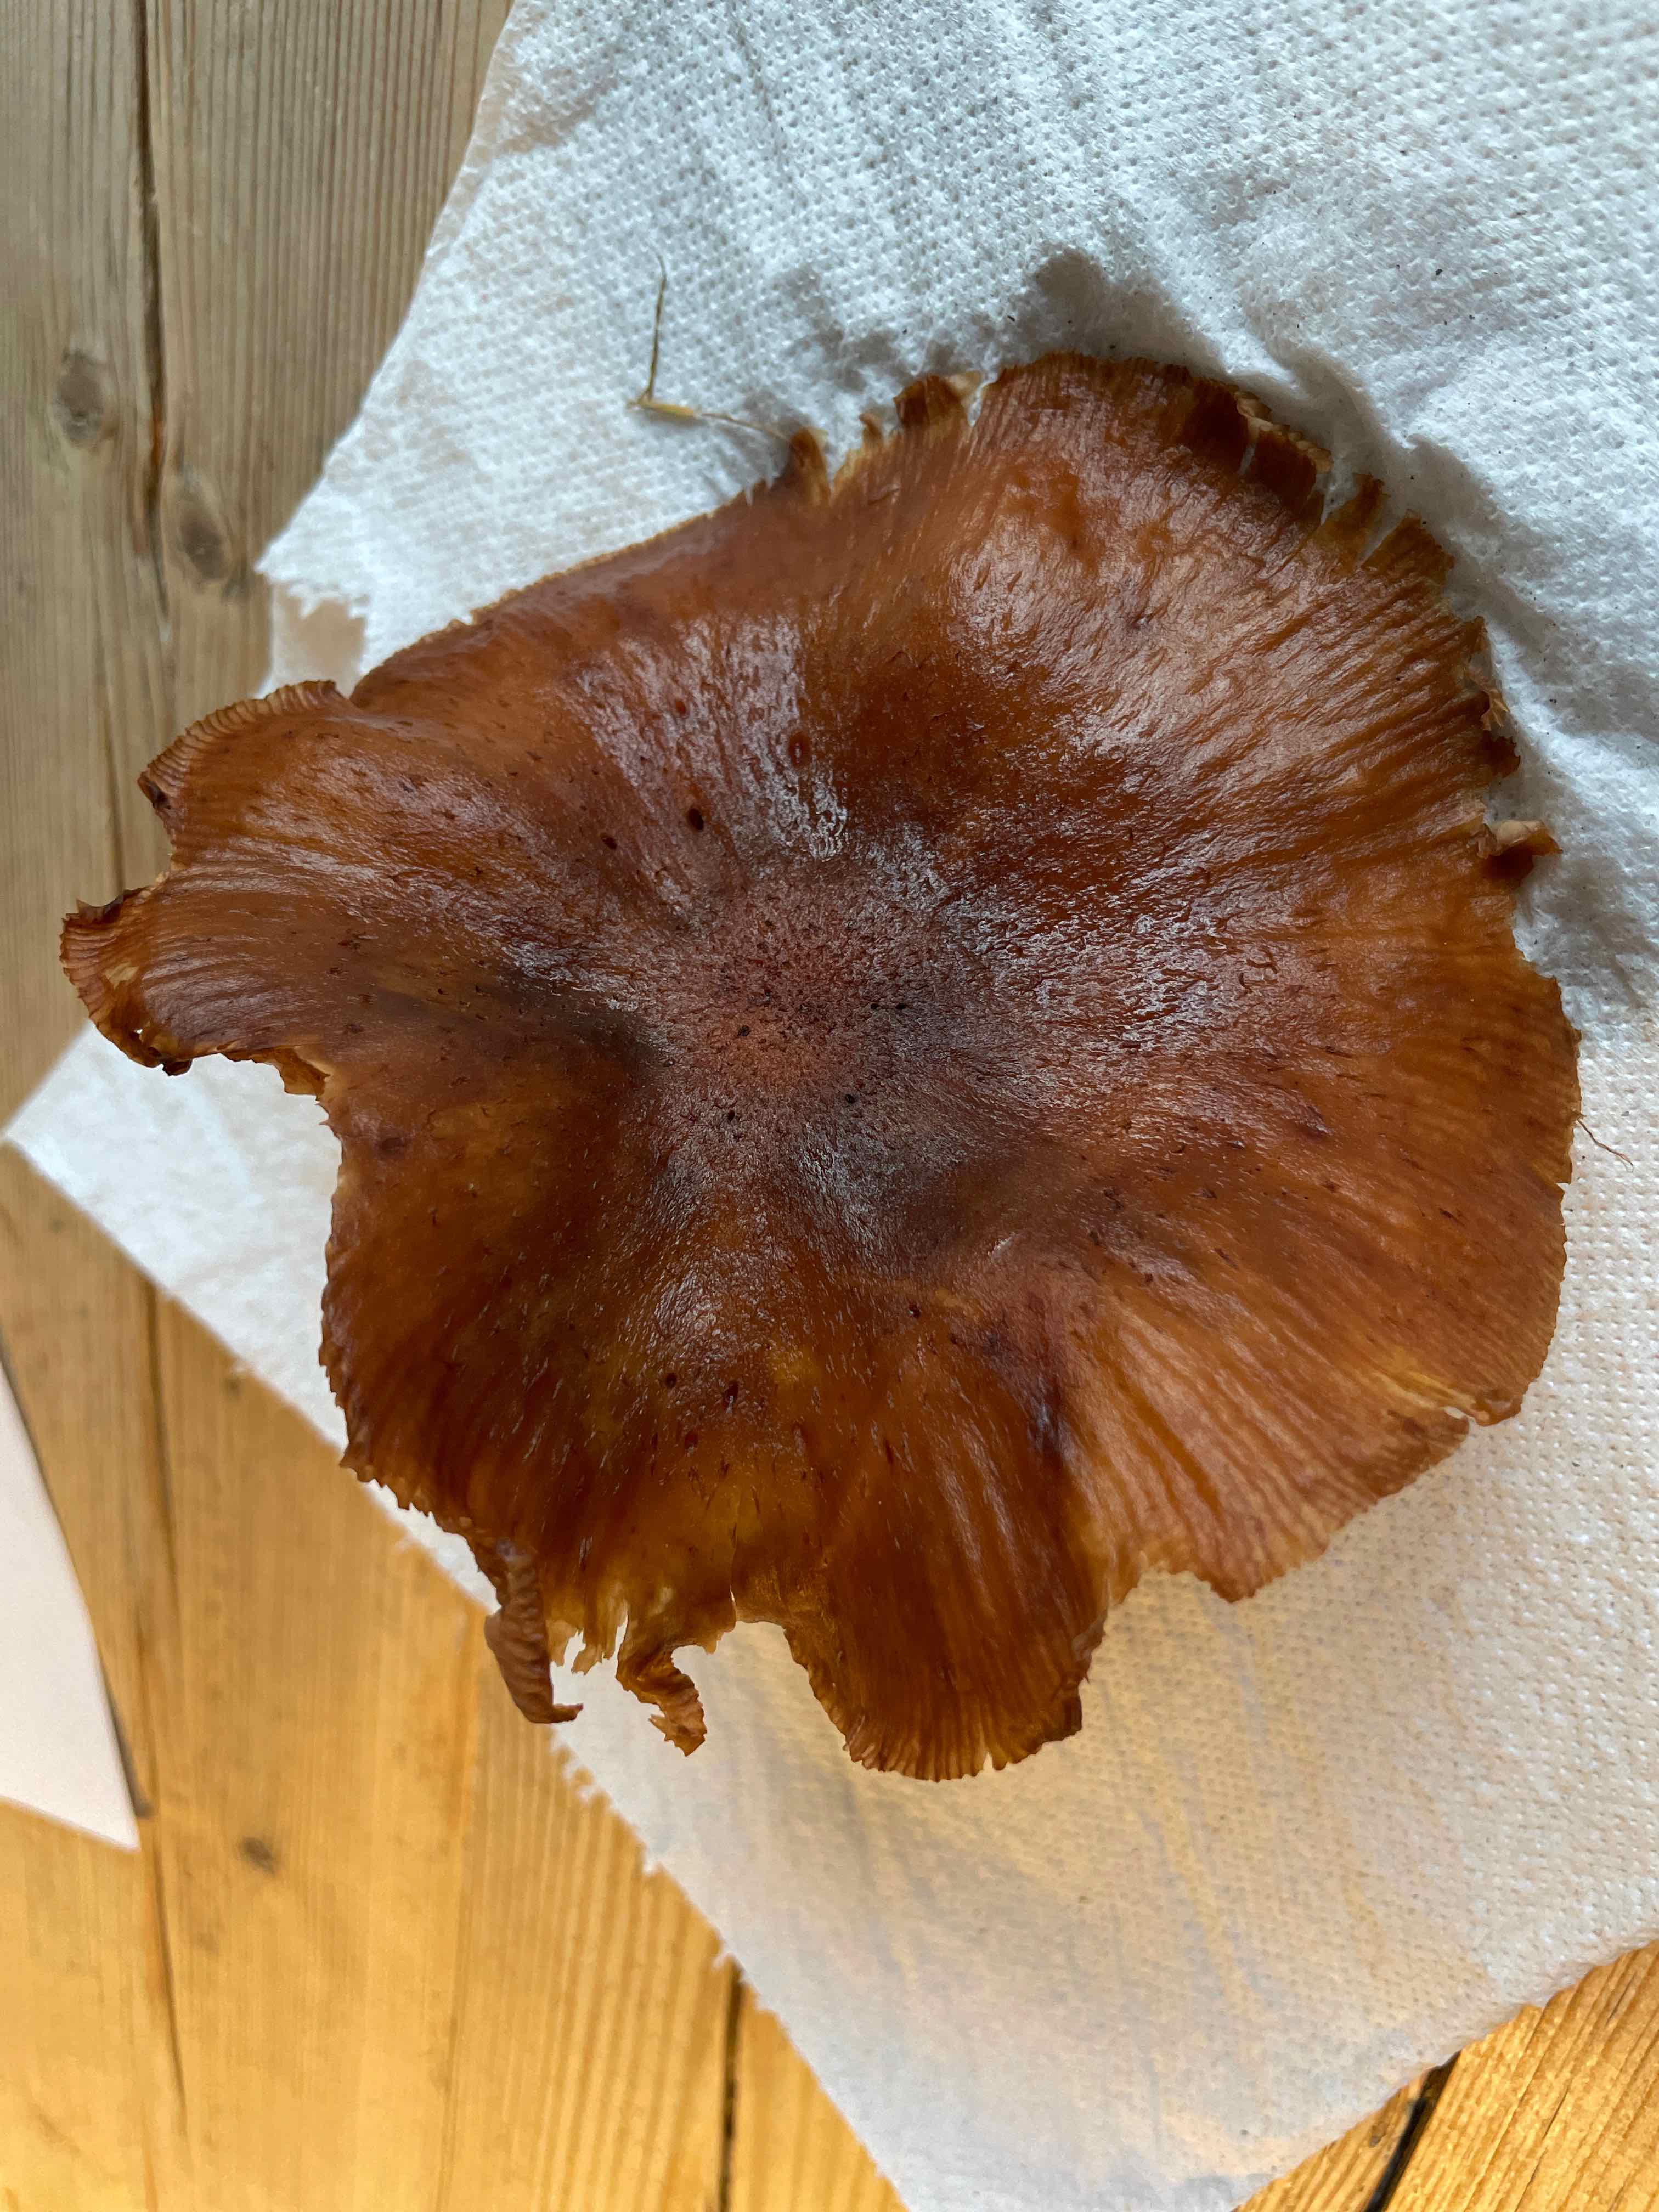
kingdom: Fungi
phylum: Basidiomycota
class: Agaricomycetes
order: Agaricales
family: Physalacriaceae
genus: Armillaria
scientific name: Armillaria
